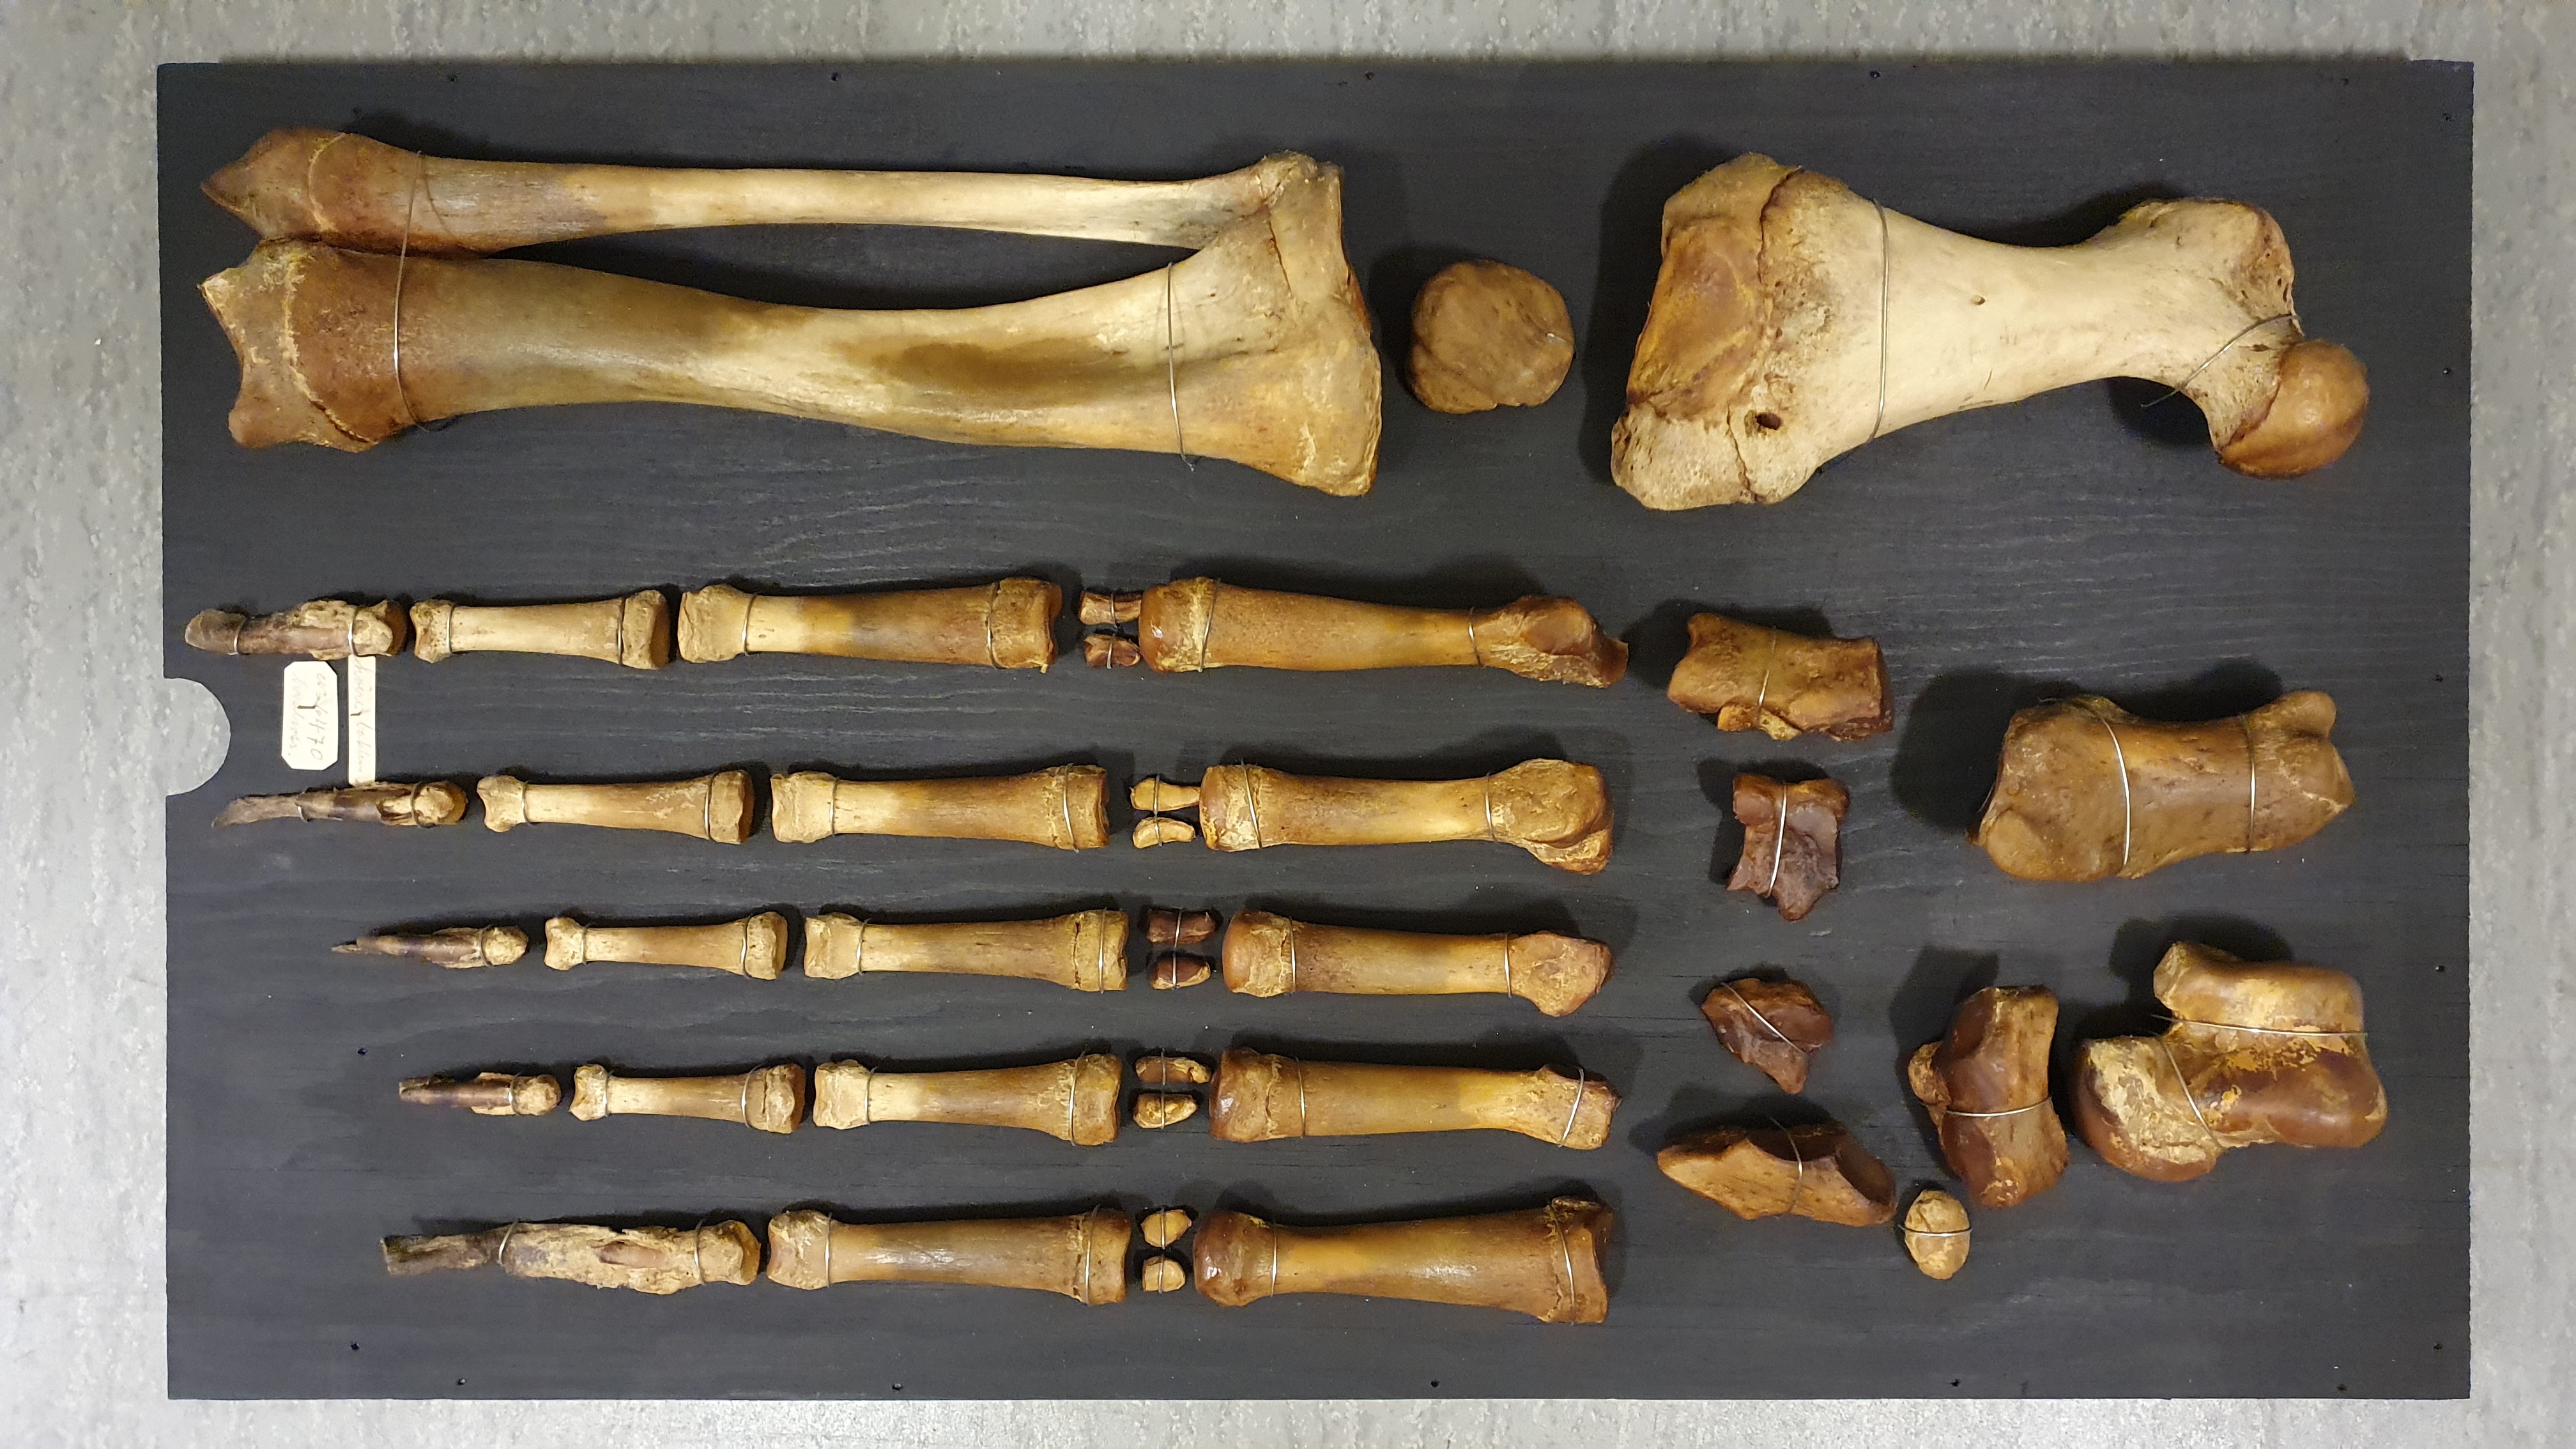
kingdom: Animalia
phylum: Chordata
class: Mammalia
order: Carnivora
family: Odobenidae
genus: Odobenus
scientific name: Odobenus rosmarus
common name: Walrus
